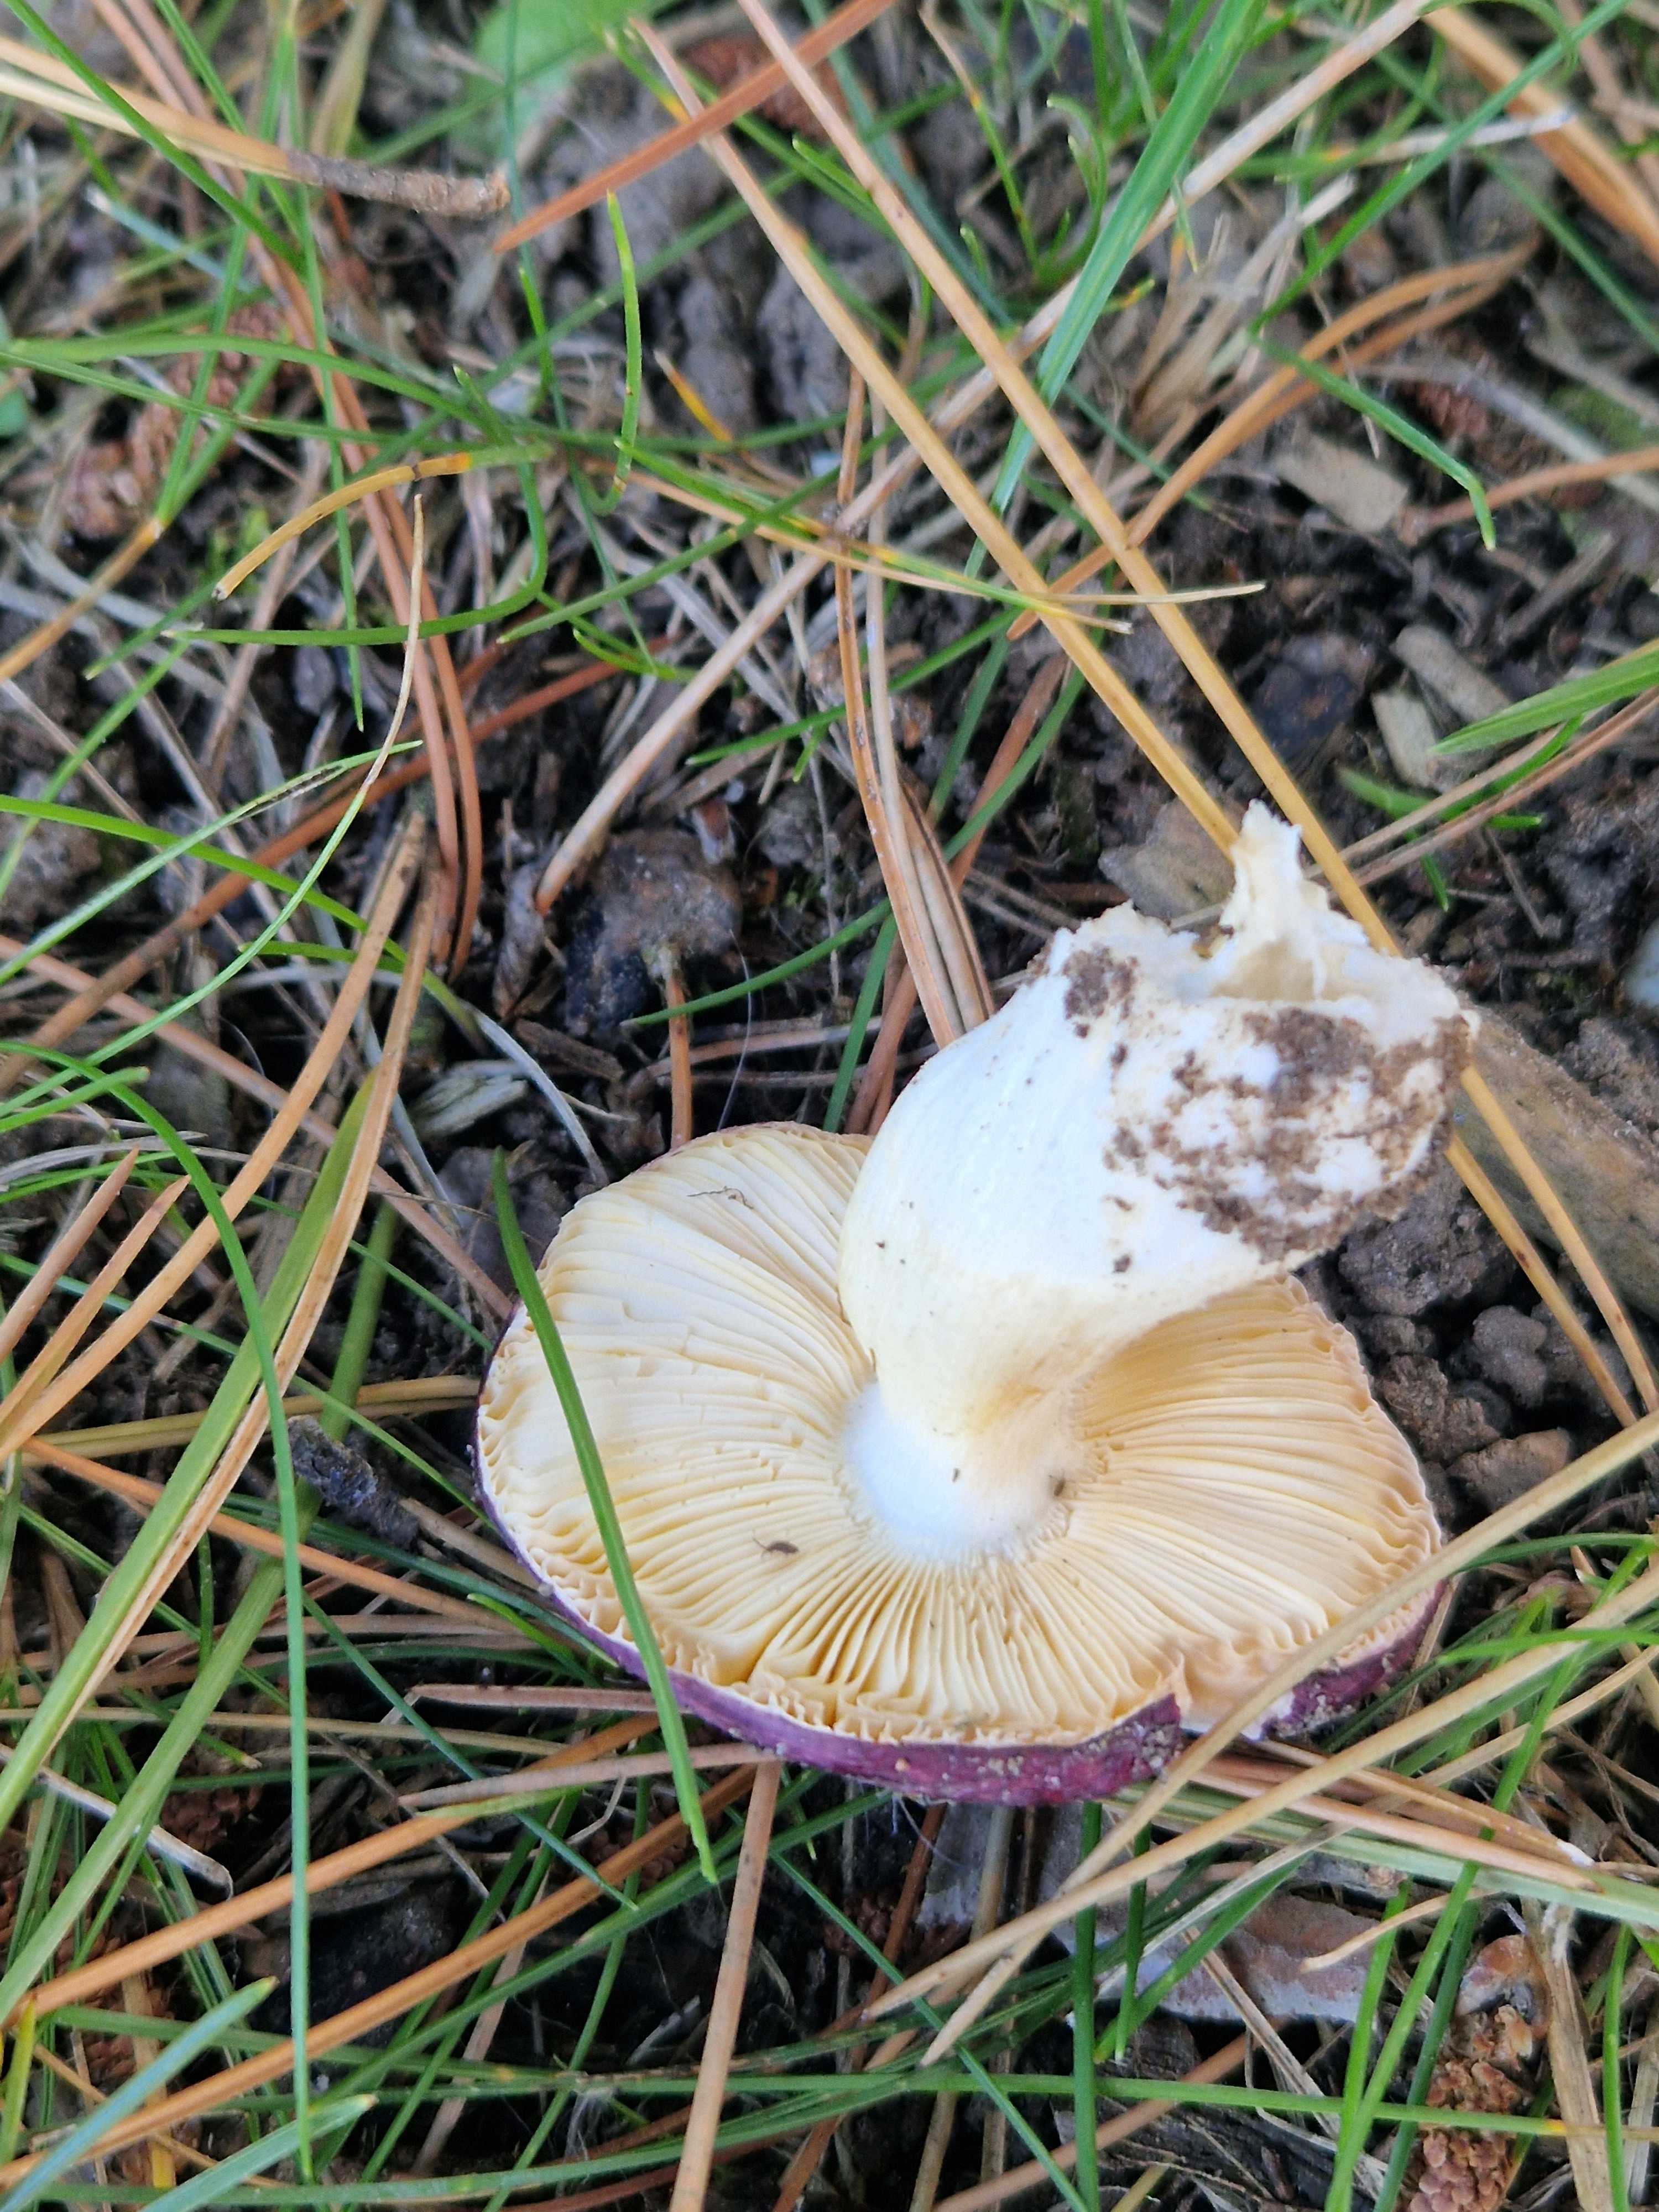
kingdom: Fungi
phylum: Basidiomycota
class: Agaricomycetes
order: Russulales
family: Russulaceae
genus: Russula
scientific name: Russula
